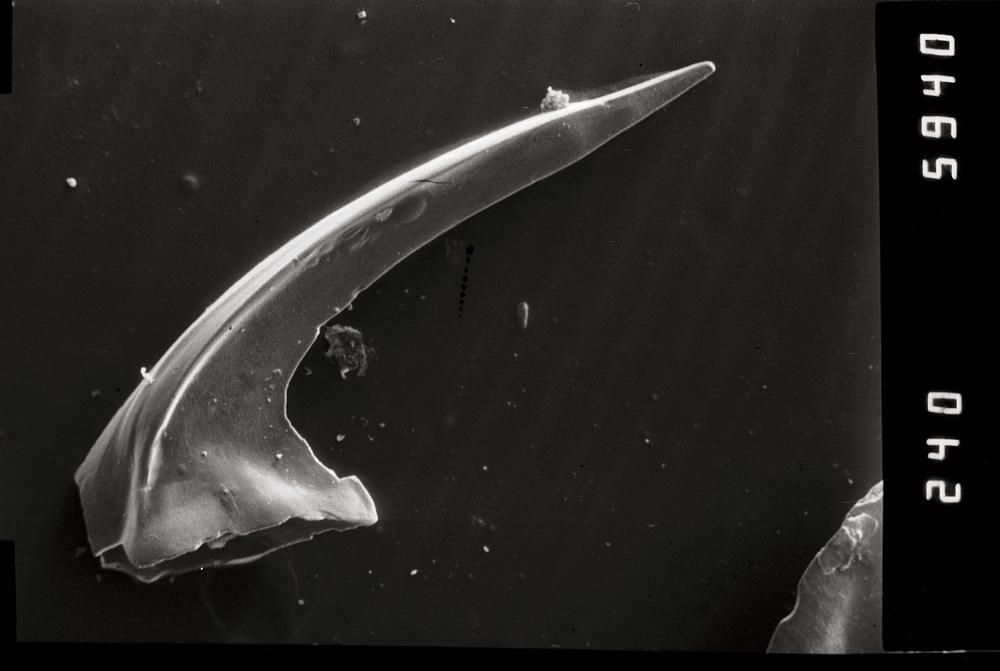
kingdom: Animalia
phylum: Chordata
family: Acodontidae
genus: Tripodus
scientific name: Tripodus
